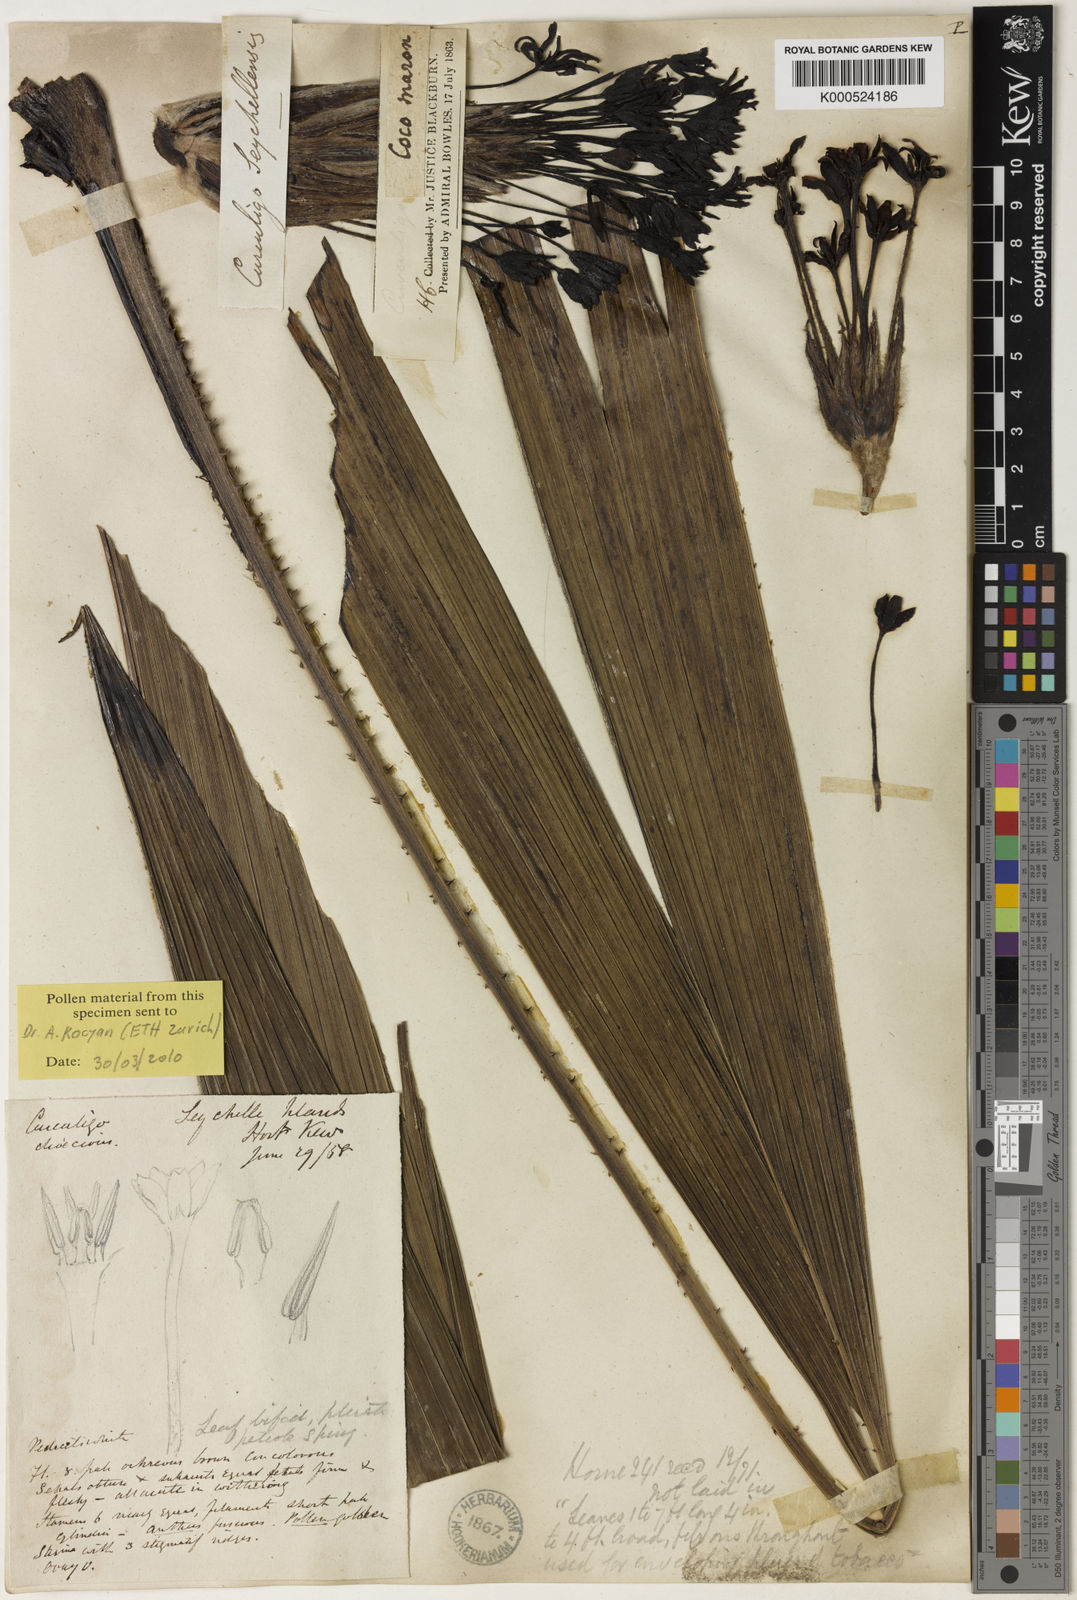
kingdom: Plantae
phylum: Tracheophyta
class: Liliopsida
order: Asparagales
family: Hypoxidaceae
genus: Curculigo
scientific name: Curculigo seychellensis
